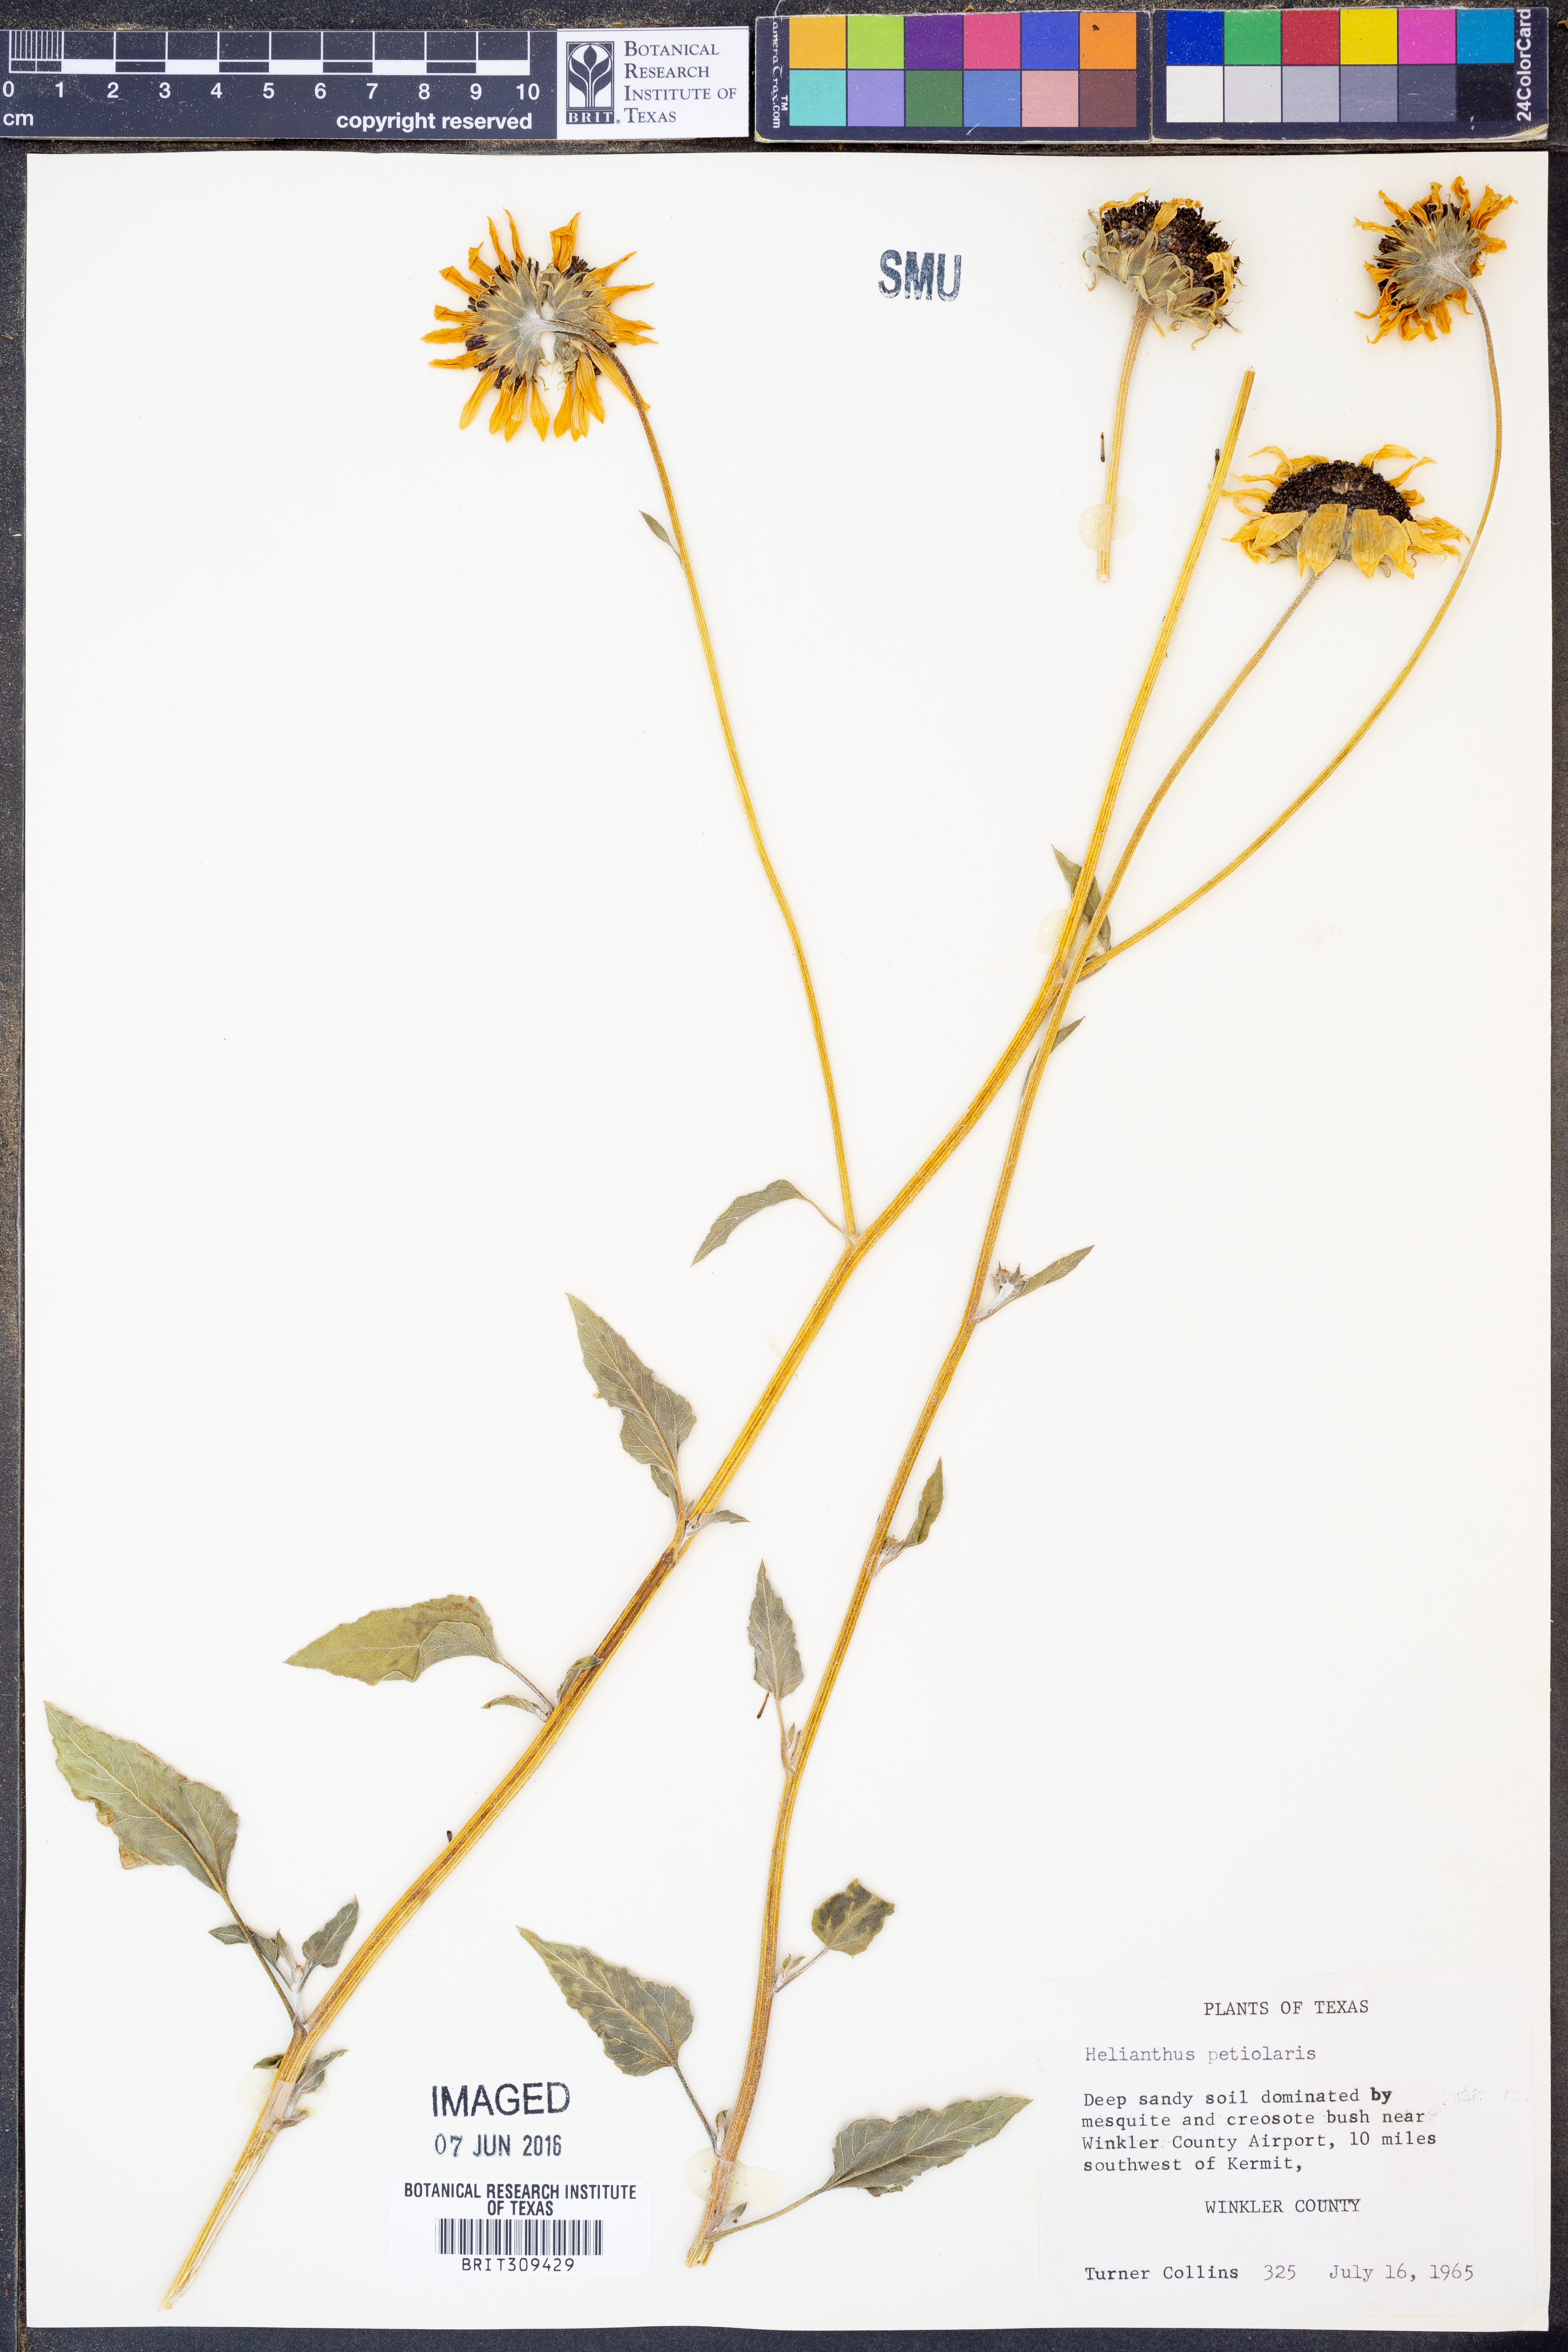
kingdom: Plantae
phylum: Tracheophyta
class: Magnoliopsida
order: Asterales
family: Asteraceae
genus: Helianthus
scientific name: Helianthus petiolaris
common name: Lesser sunflower
